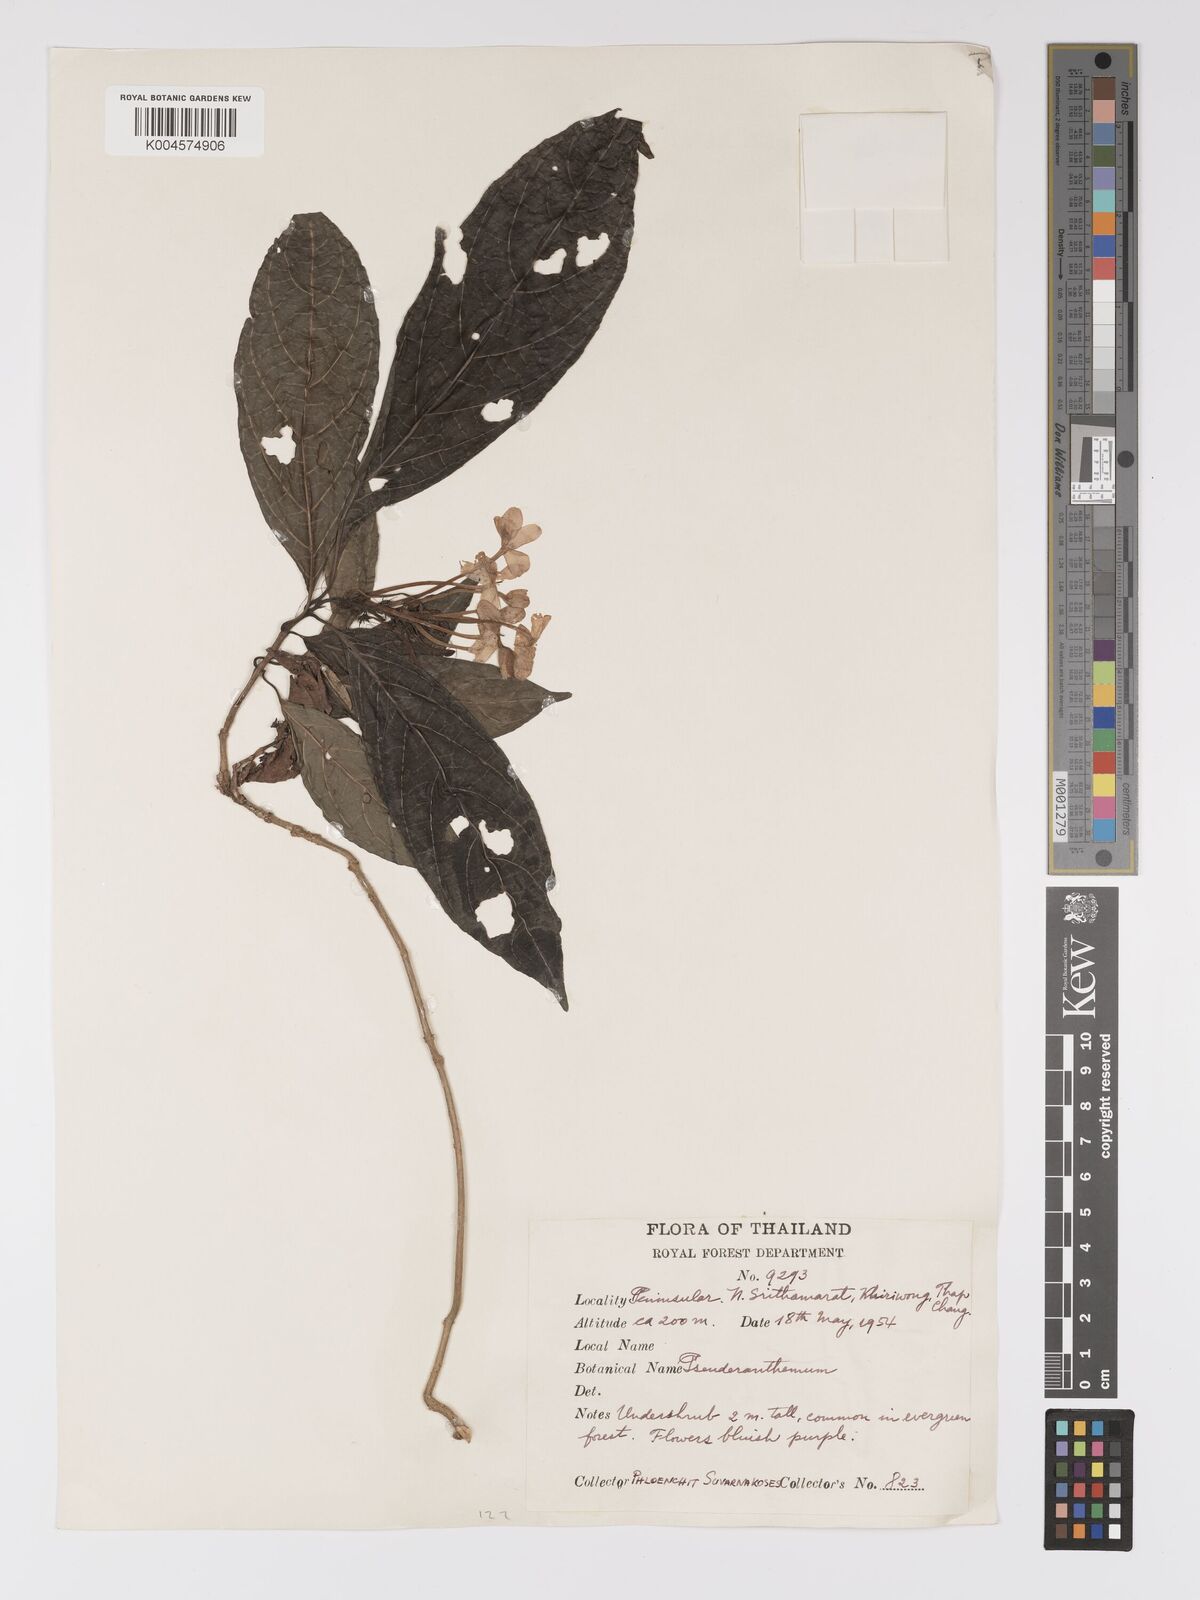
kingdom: Plantae
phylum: Tracheophyta
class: Magnoliopsida
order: Lamiales
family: Acanthaceae
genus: Pseuderanthemum
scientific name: Pseuderanthemum
